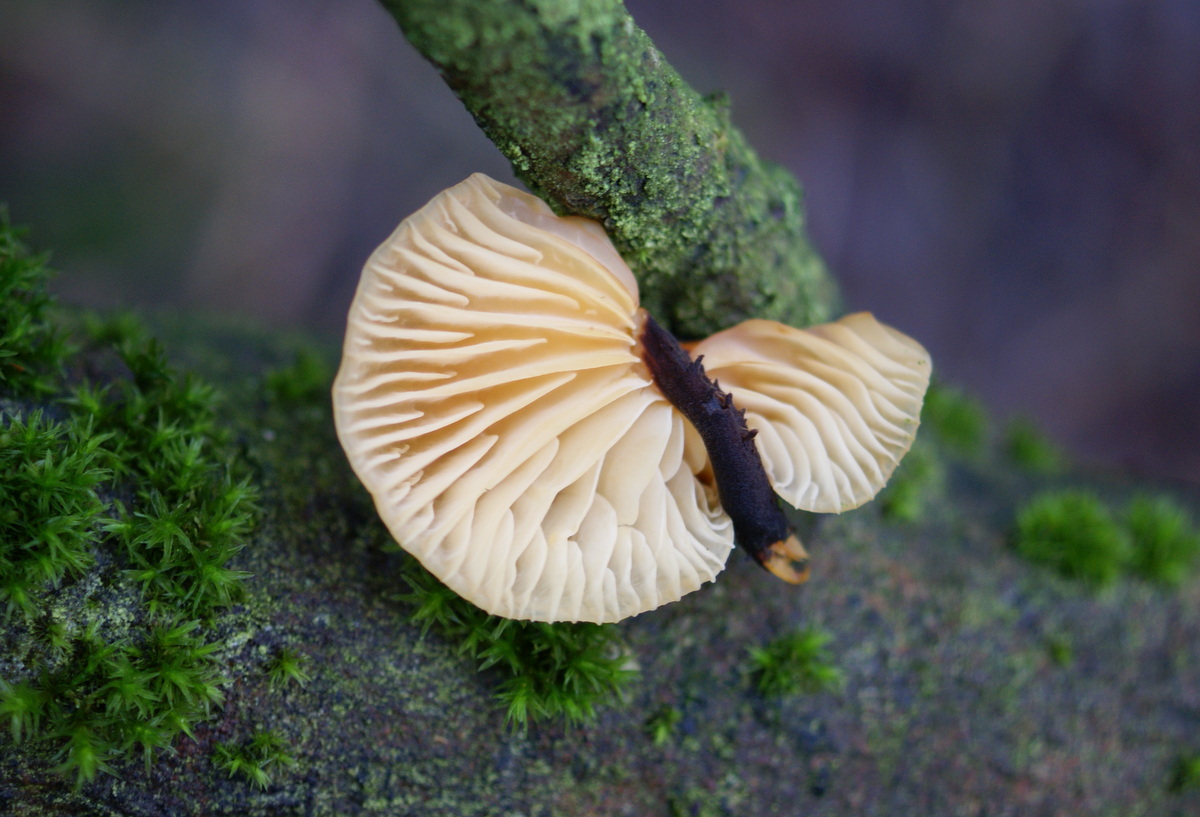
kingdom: Fungi
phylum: Basidiomycota
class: Agaricomycetes
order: Agaricales
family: Physalacriaceae
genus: Flammulina
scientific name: Flammulina elastica
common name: pile-fløjlsfod
